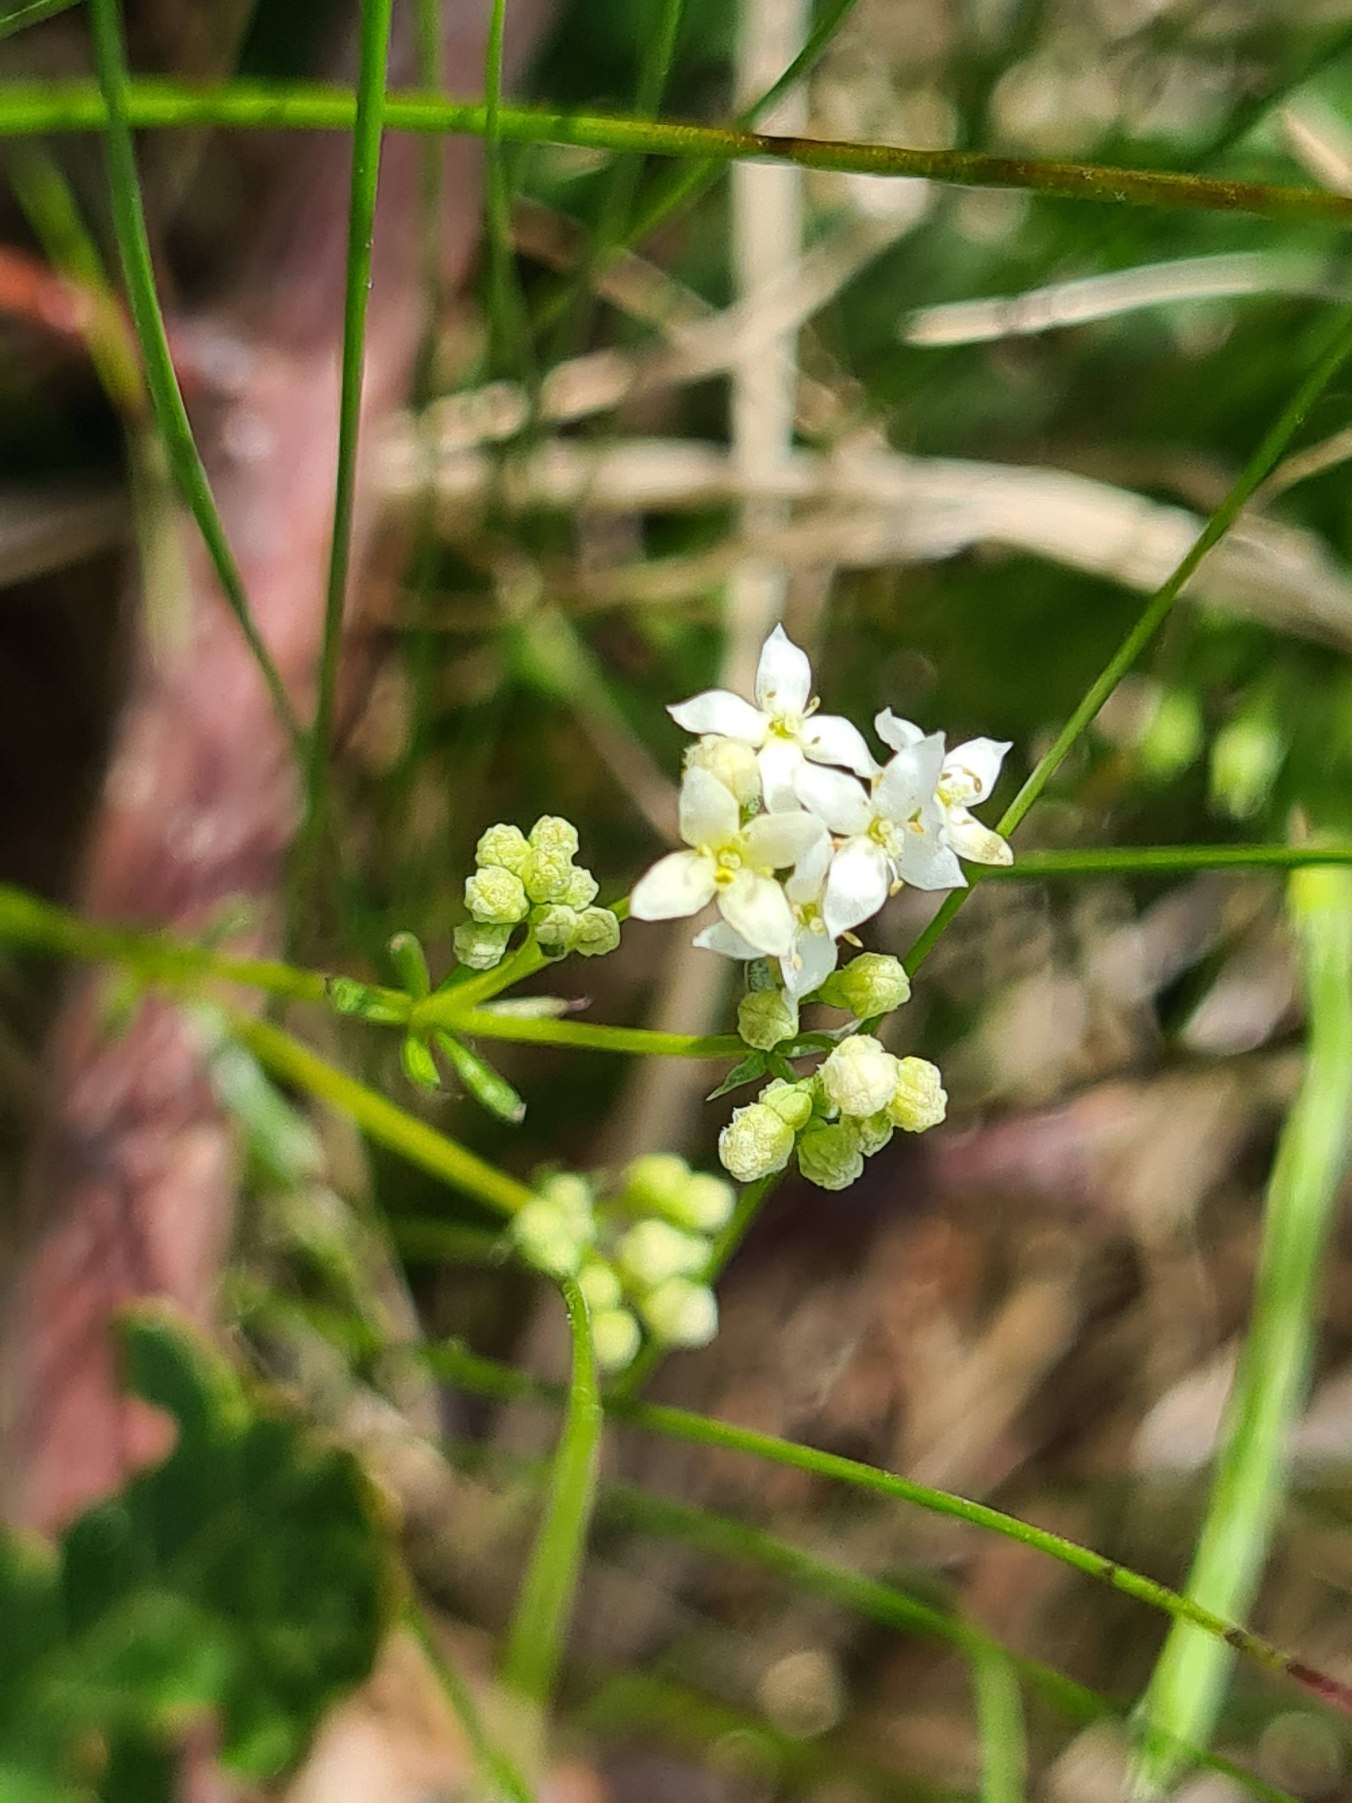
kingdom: Plantae
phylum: Tracheophyta
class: Magnoliopsida
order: Gentianales
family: Rubiaceae
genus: Galium
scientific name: Galium sterneri
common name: Liden snerre
